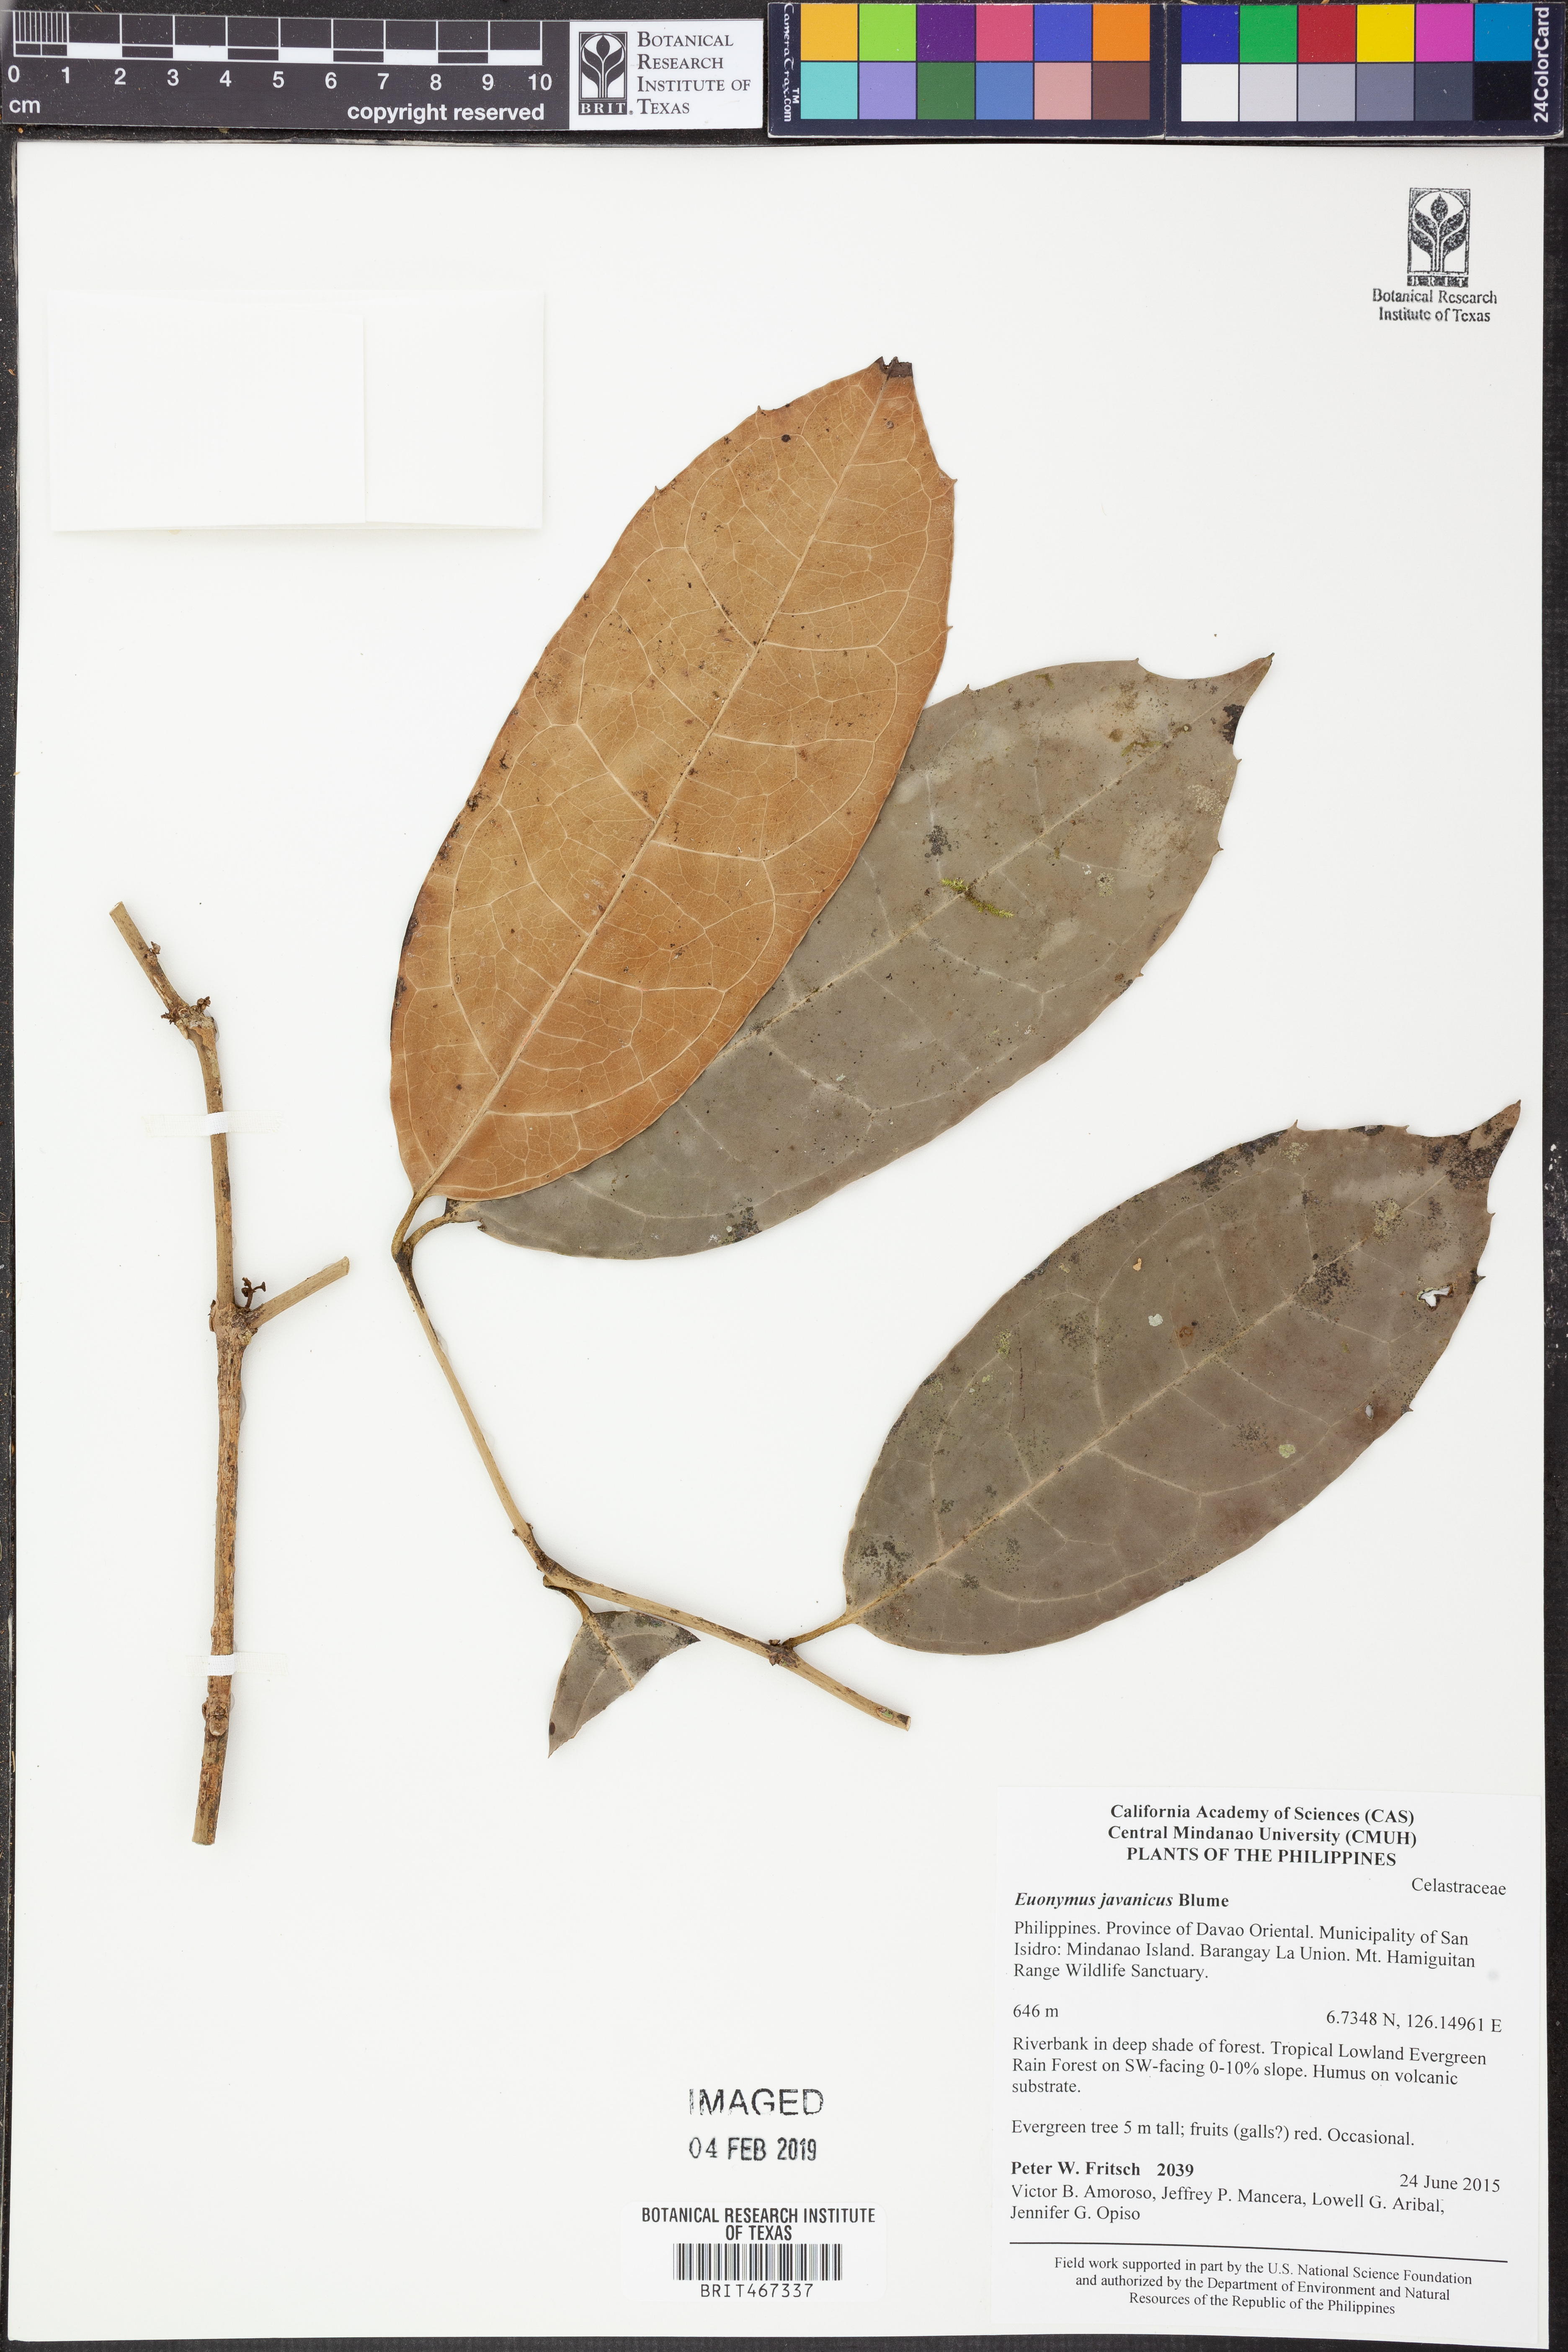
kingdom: Plantae
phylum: Tracheophyta
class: Magnoliopsida
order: Celastrales
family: Celastraceae
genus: Euonymus
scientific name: Euonymus indicus
